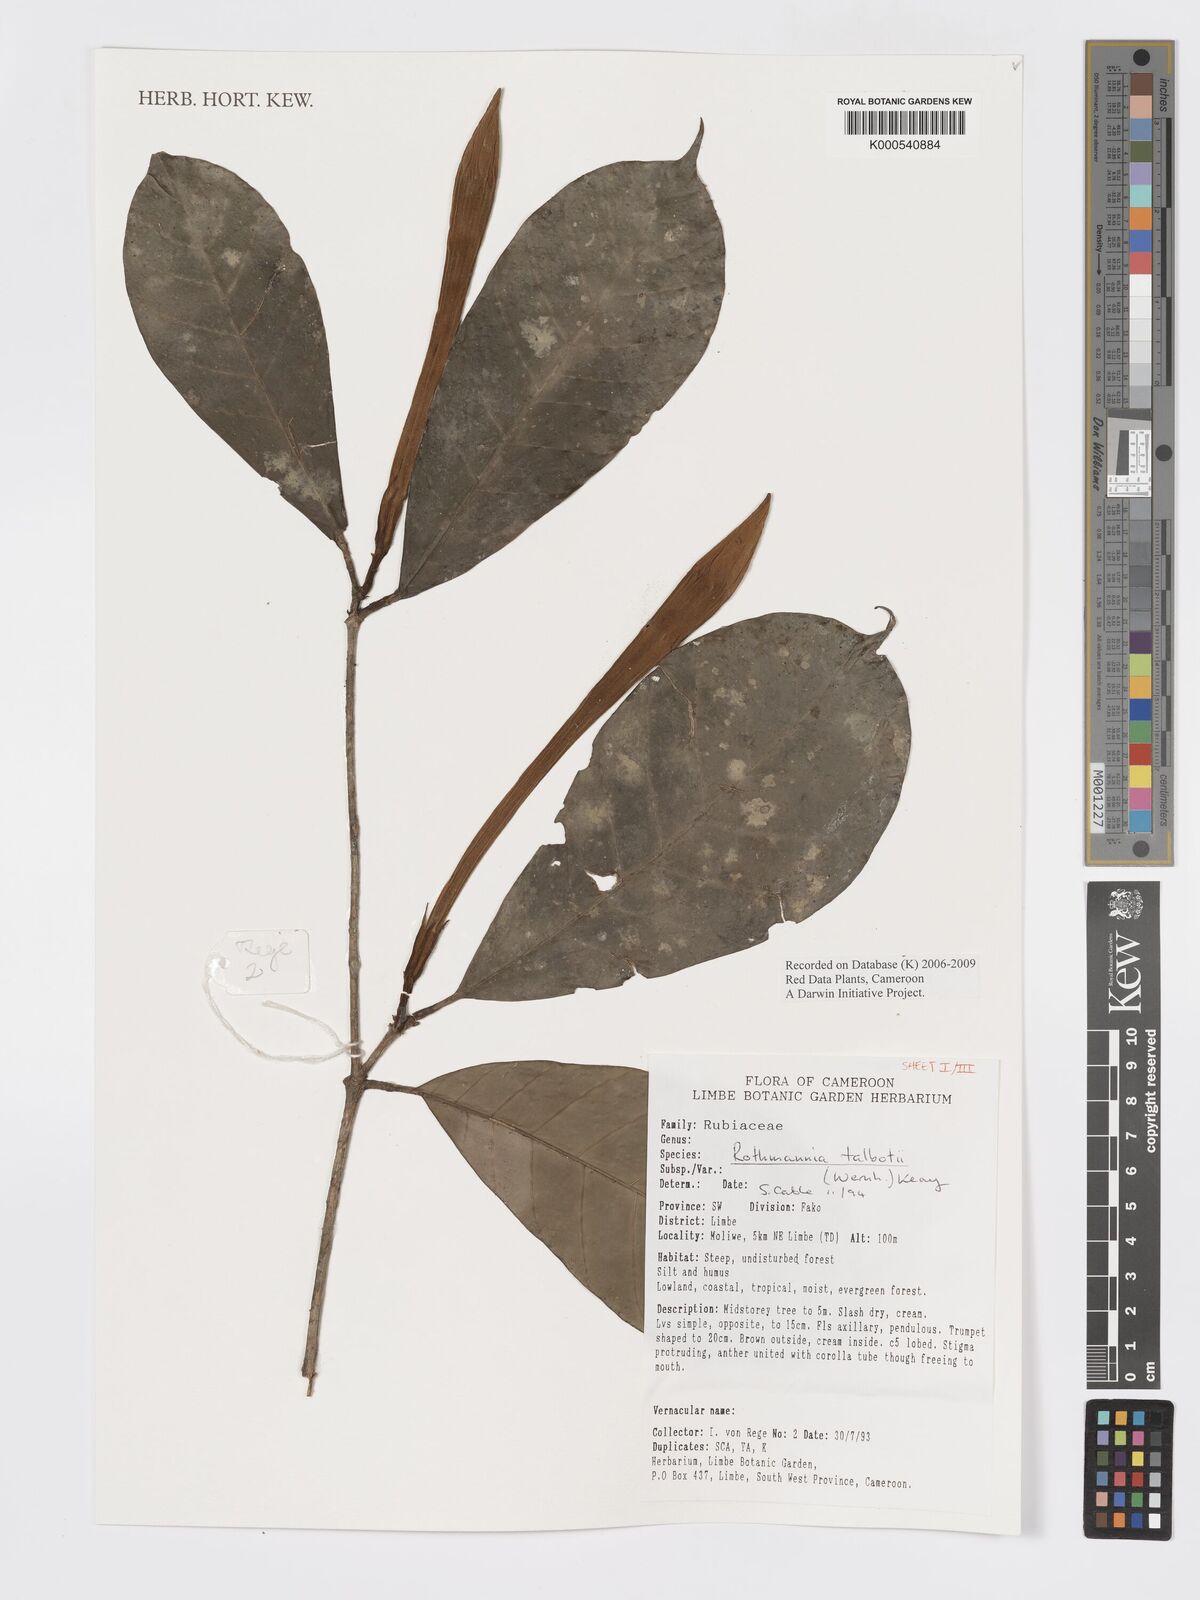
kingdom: Plantae
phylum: Tracheophyta
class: Magnoliopsida
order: Gentianales
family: Rubiaceae
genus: Rothmannia
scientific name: Rothmannia talbotii
